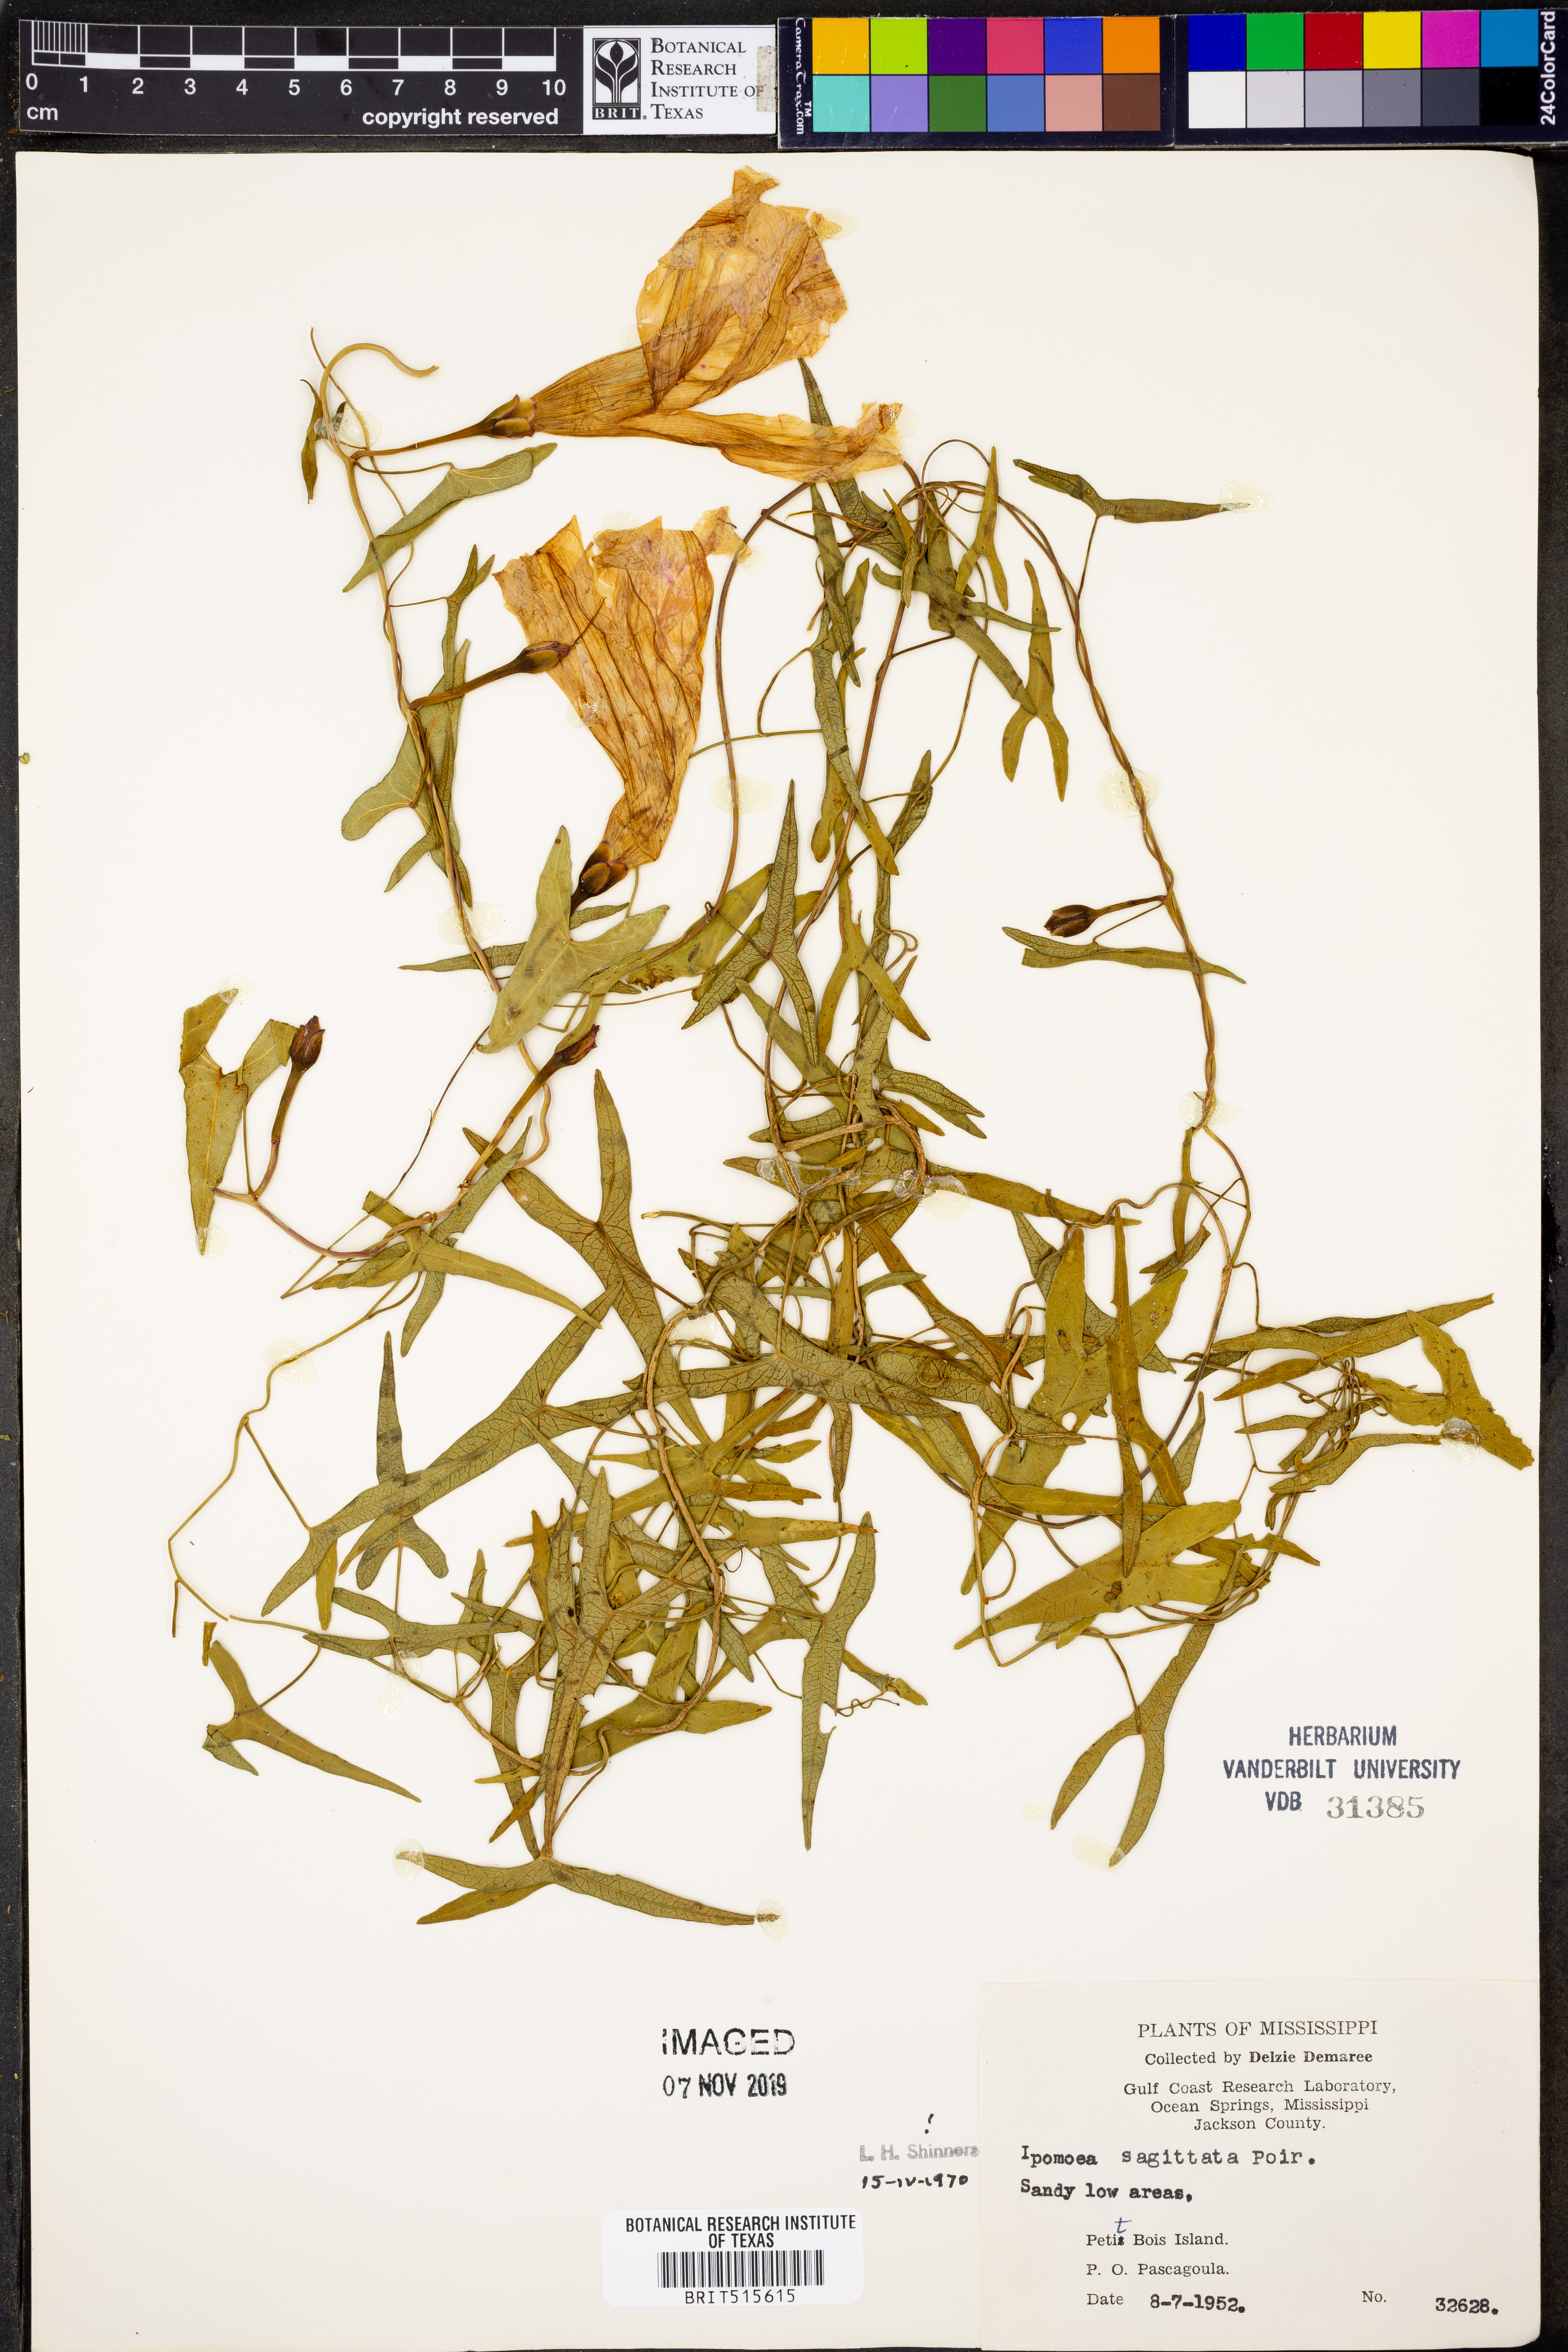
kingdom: Plantae
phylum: Tracheophyta
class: Magnoliopsida
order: Solanales
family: Convolvulaceae
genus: Ipomoea
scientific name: Ipomoea sinensis
